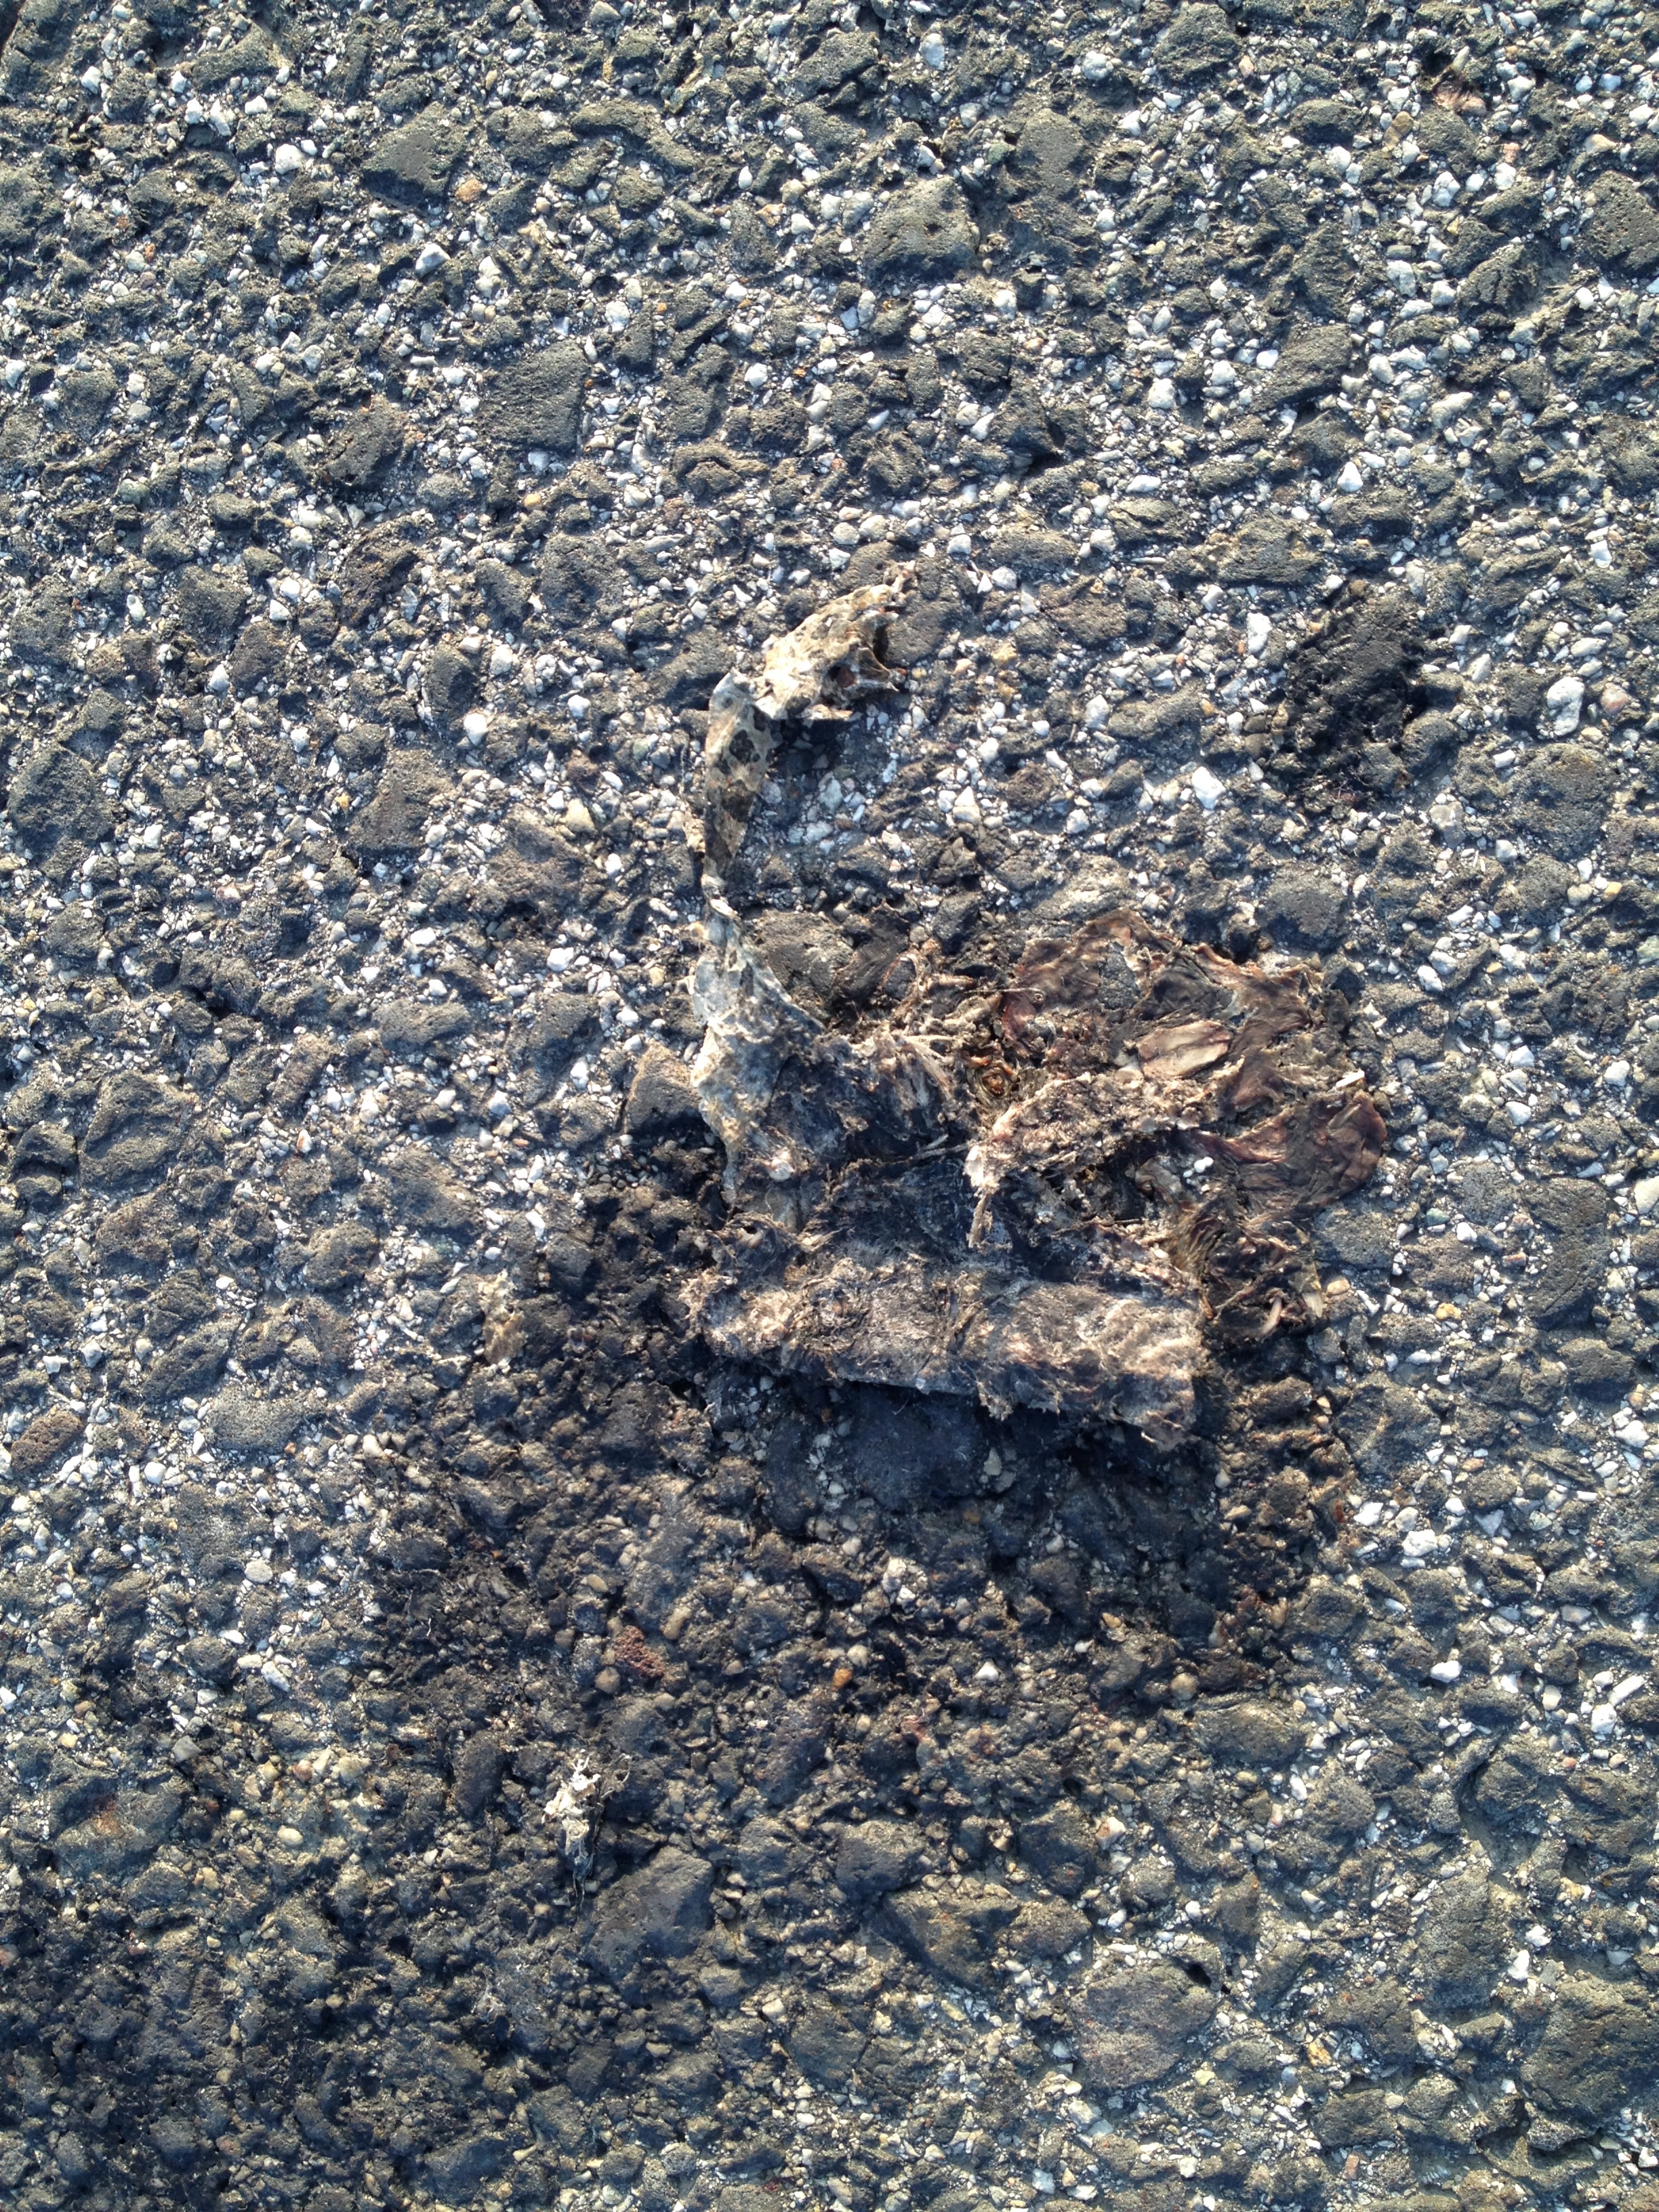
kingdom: Animalia
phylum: Chordata
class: Amphibia
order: Anura
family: Bufonidae
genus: Bufotes
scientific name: Bufotes viridis
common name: European green toad
